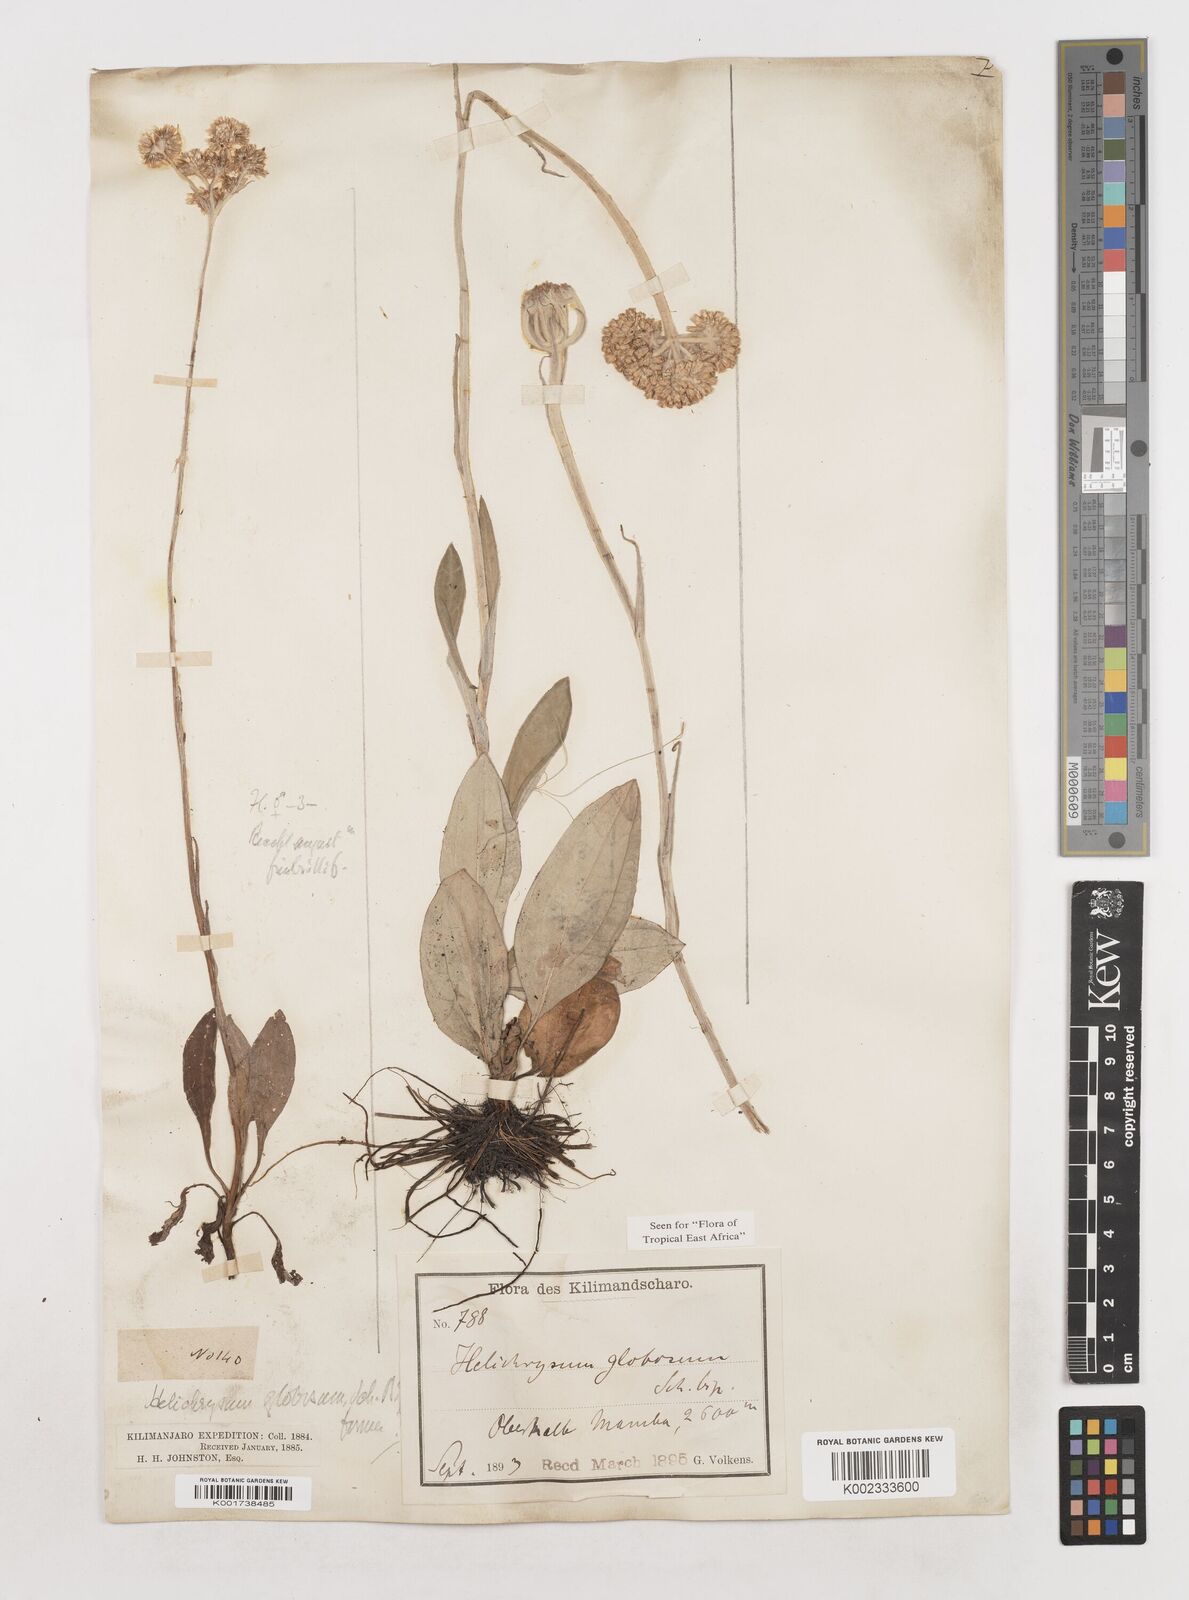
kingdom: Plantae
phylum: Tracheophyta
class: Magnoliopsida
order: Asterales
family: Asteraceae
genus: Helichrysum
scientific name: Helichrysum globosum
